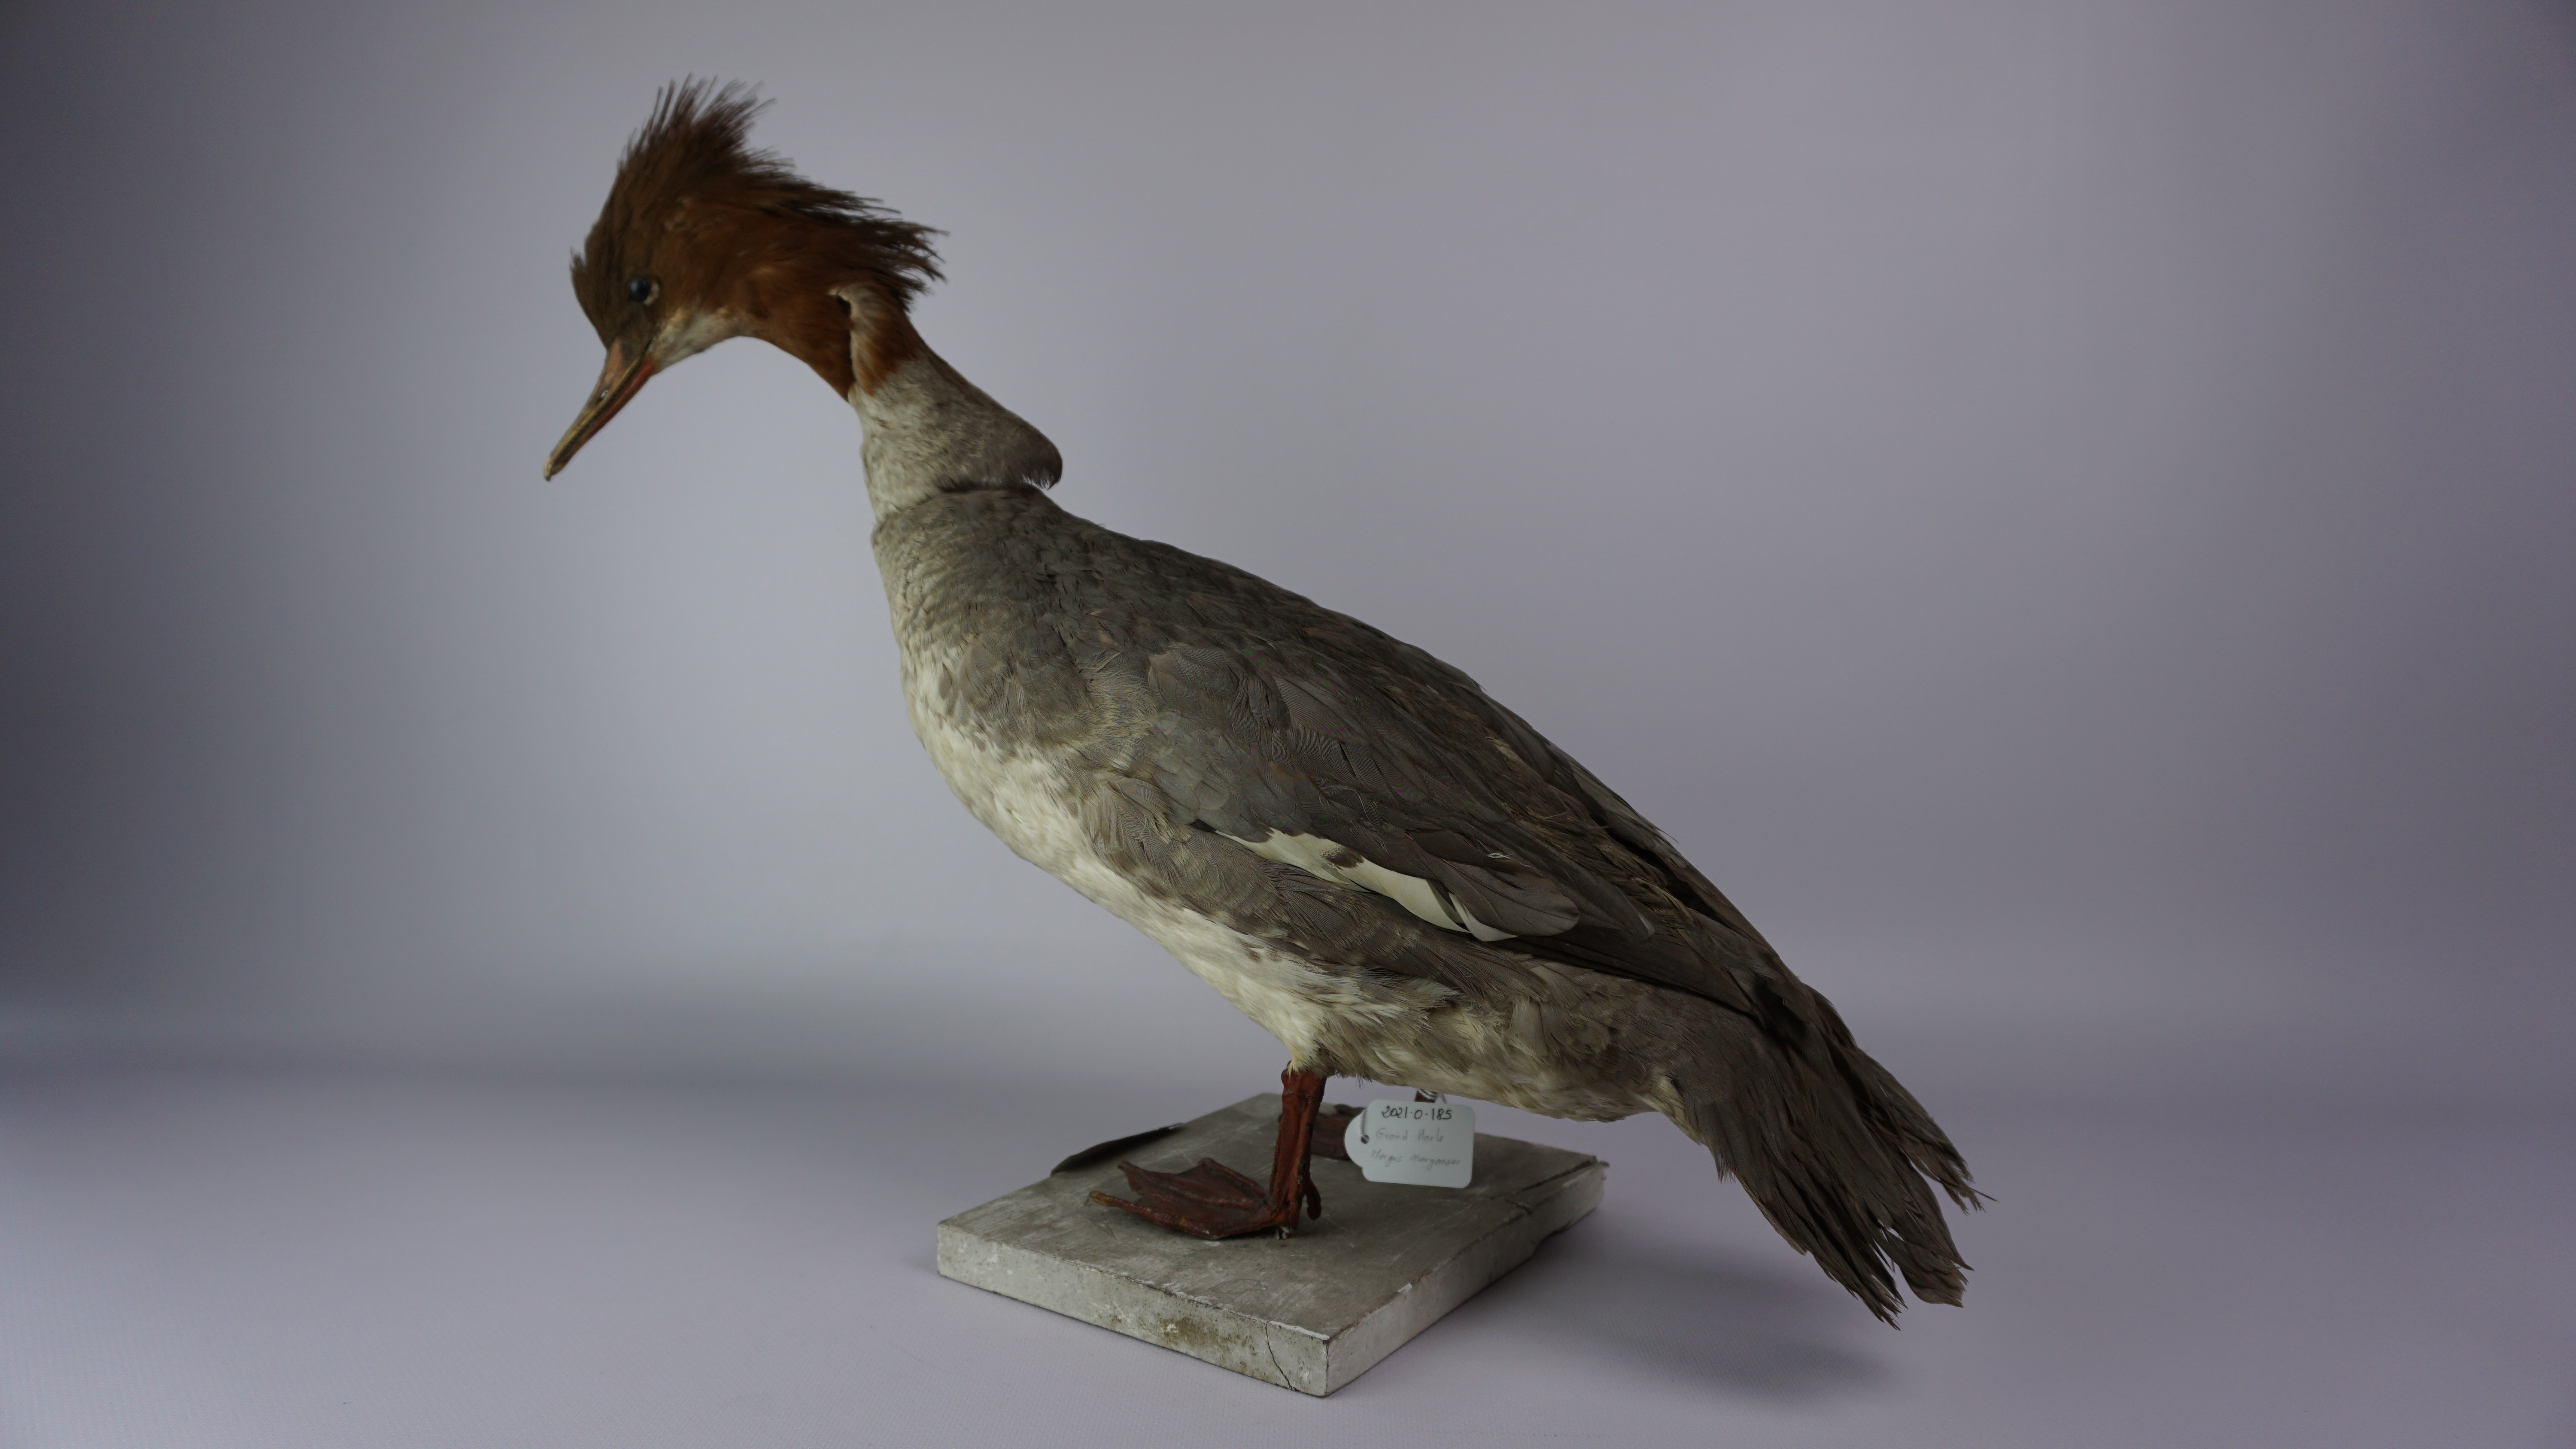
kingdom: Animalia
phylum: Chordata
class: Aves
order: Anseriformes
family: Anatidae
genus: Mergus
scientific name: Mergus merganser
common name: Common merganser
